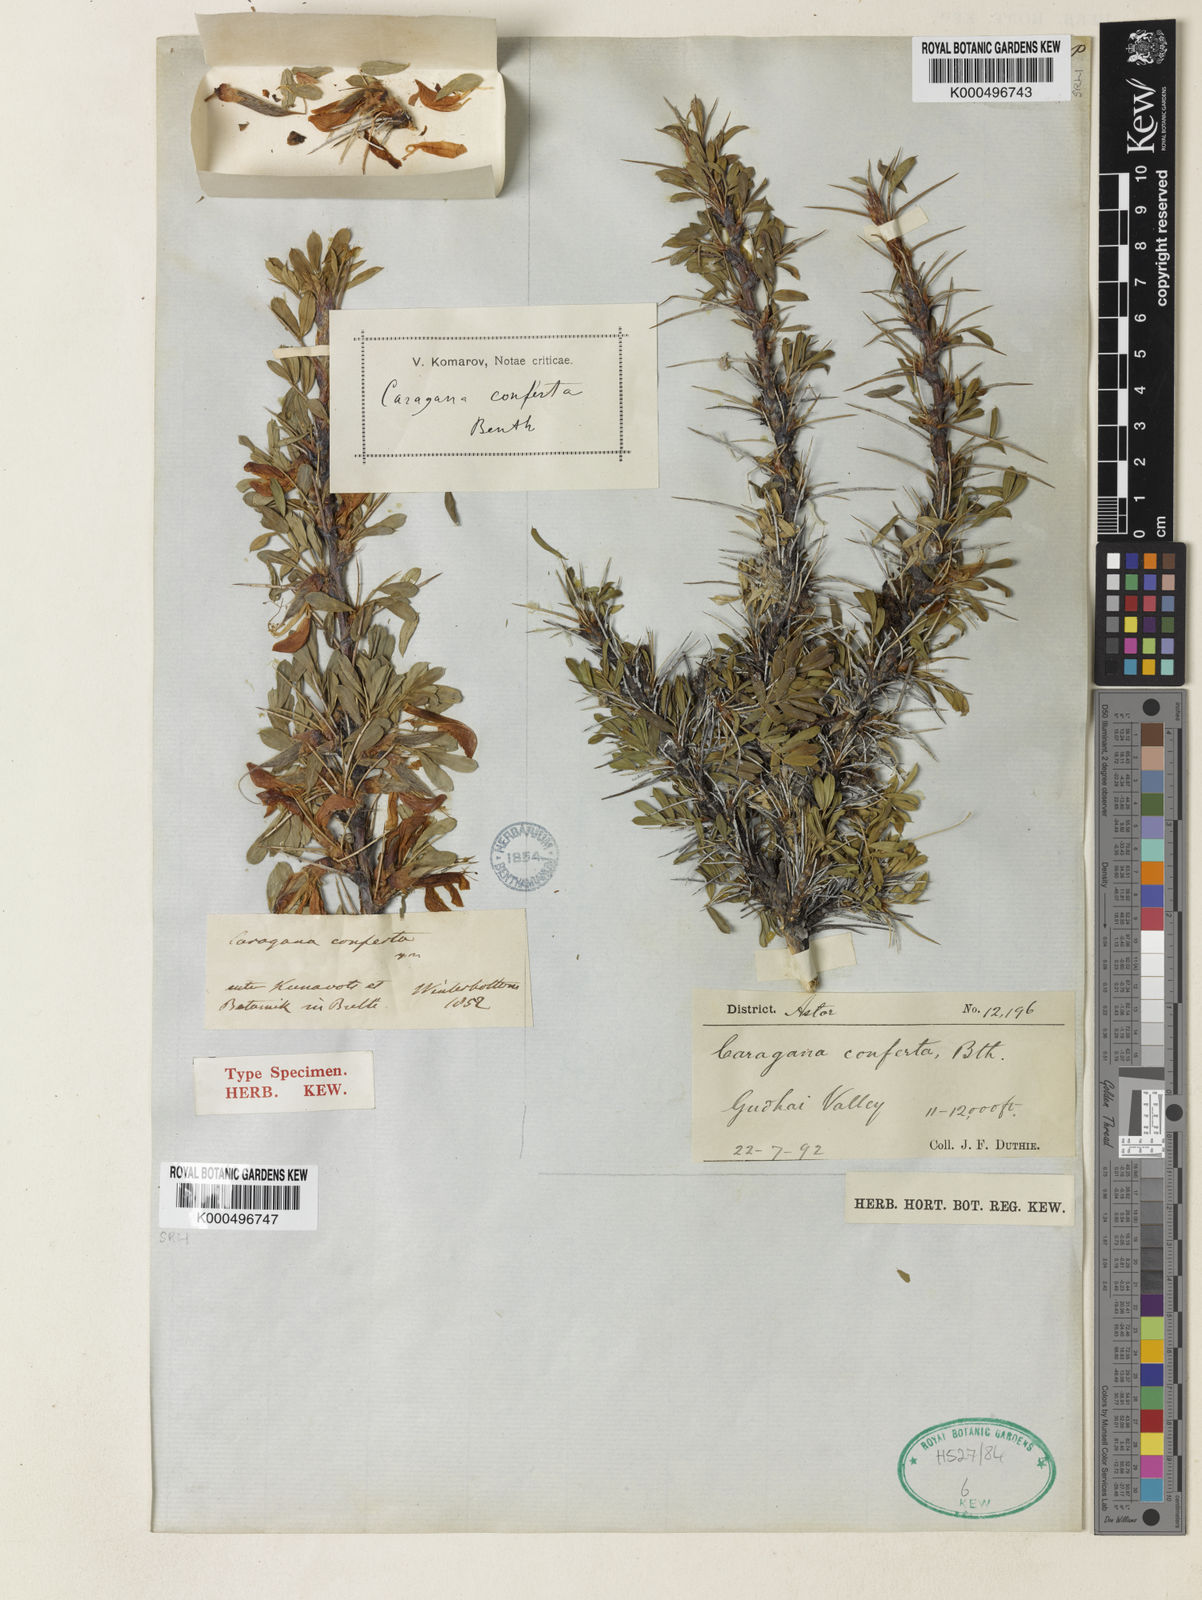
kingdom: Plantae
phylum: Tracheophyta
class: Magnoliopsida
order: Fabales
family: Fabaceae
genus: Caragana
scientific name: Caragana conferta
